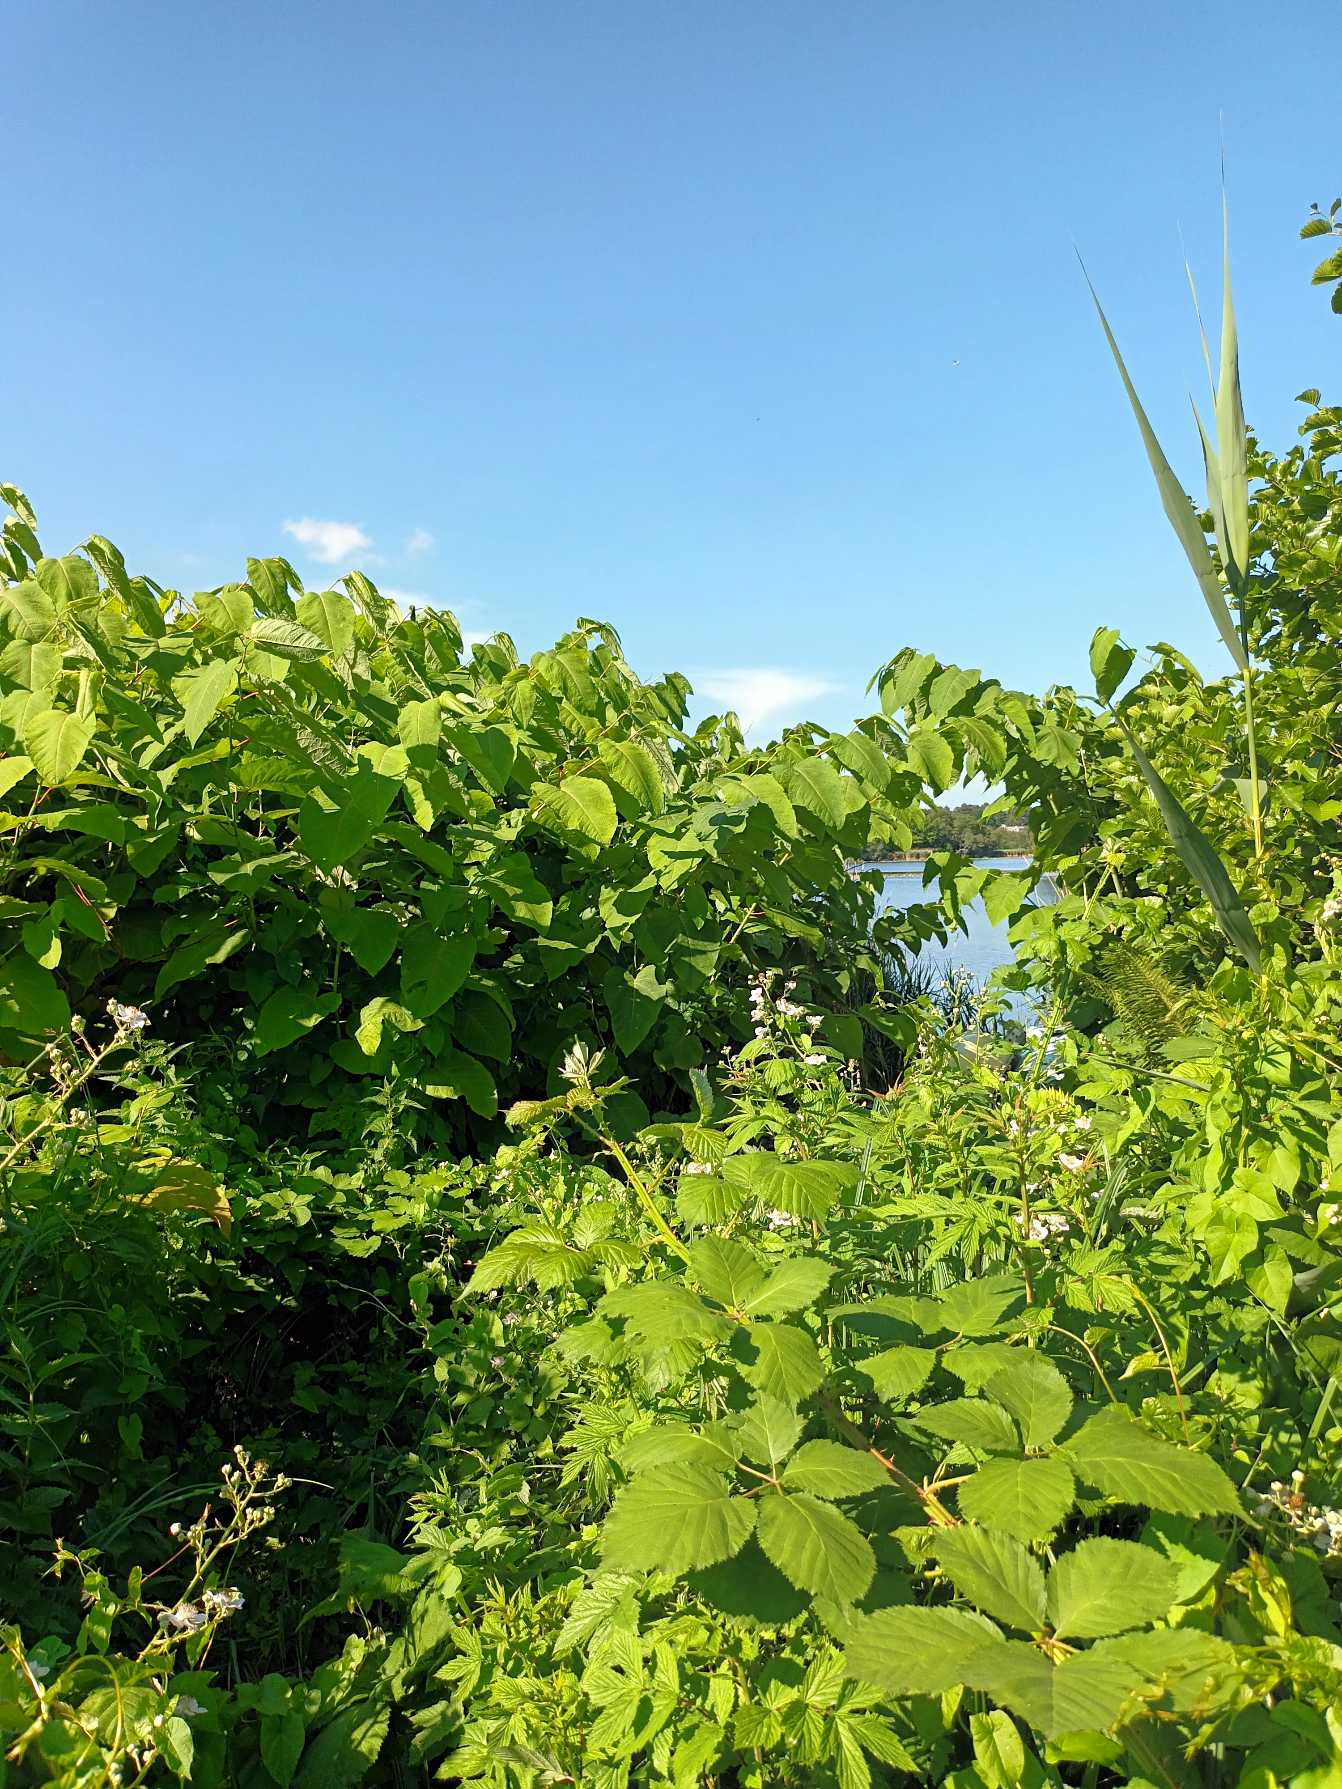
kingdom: Plantae
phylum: Tracheophyta
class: Magnoliopsida
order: Caryophyllales
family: Polygonaceae
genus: Reynoutria
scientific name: Reynoutria sachalinensis
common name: Kæmpe-pileurt
